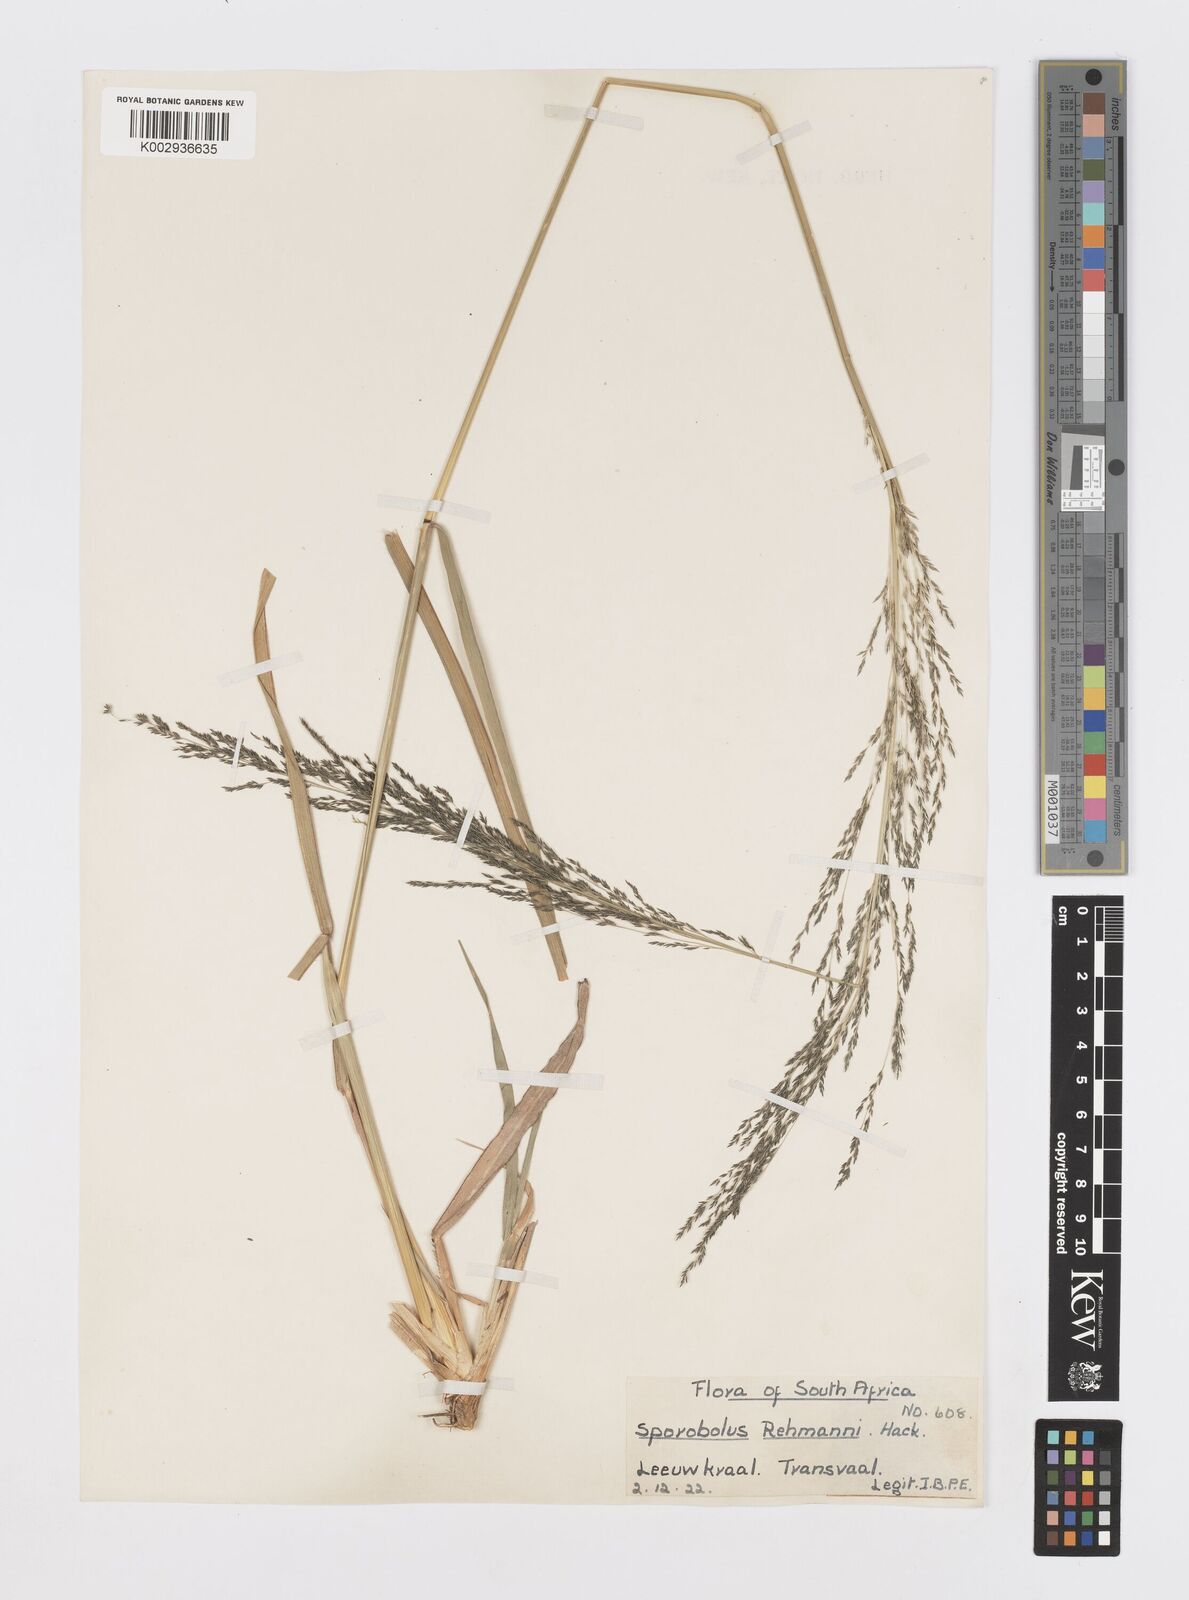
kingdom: Plantae
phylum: Tracheophyta
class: Liliopsida
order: Poales
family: Poaceae
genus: Sporobolus
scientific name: Sporobolus fimbriatus
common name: Fringed dropseed
